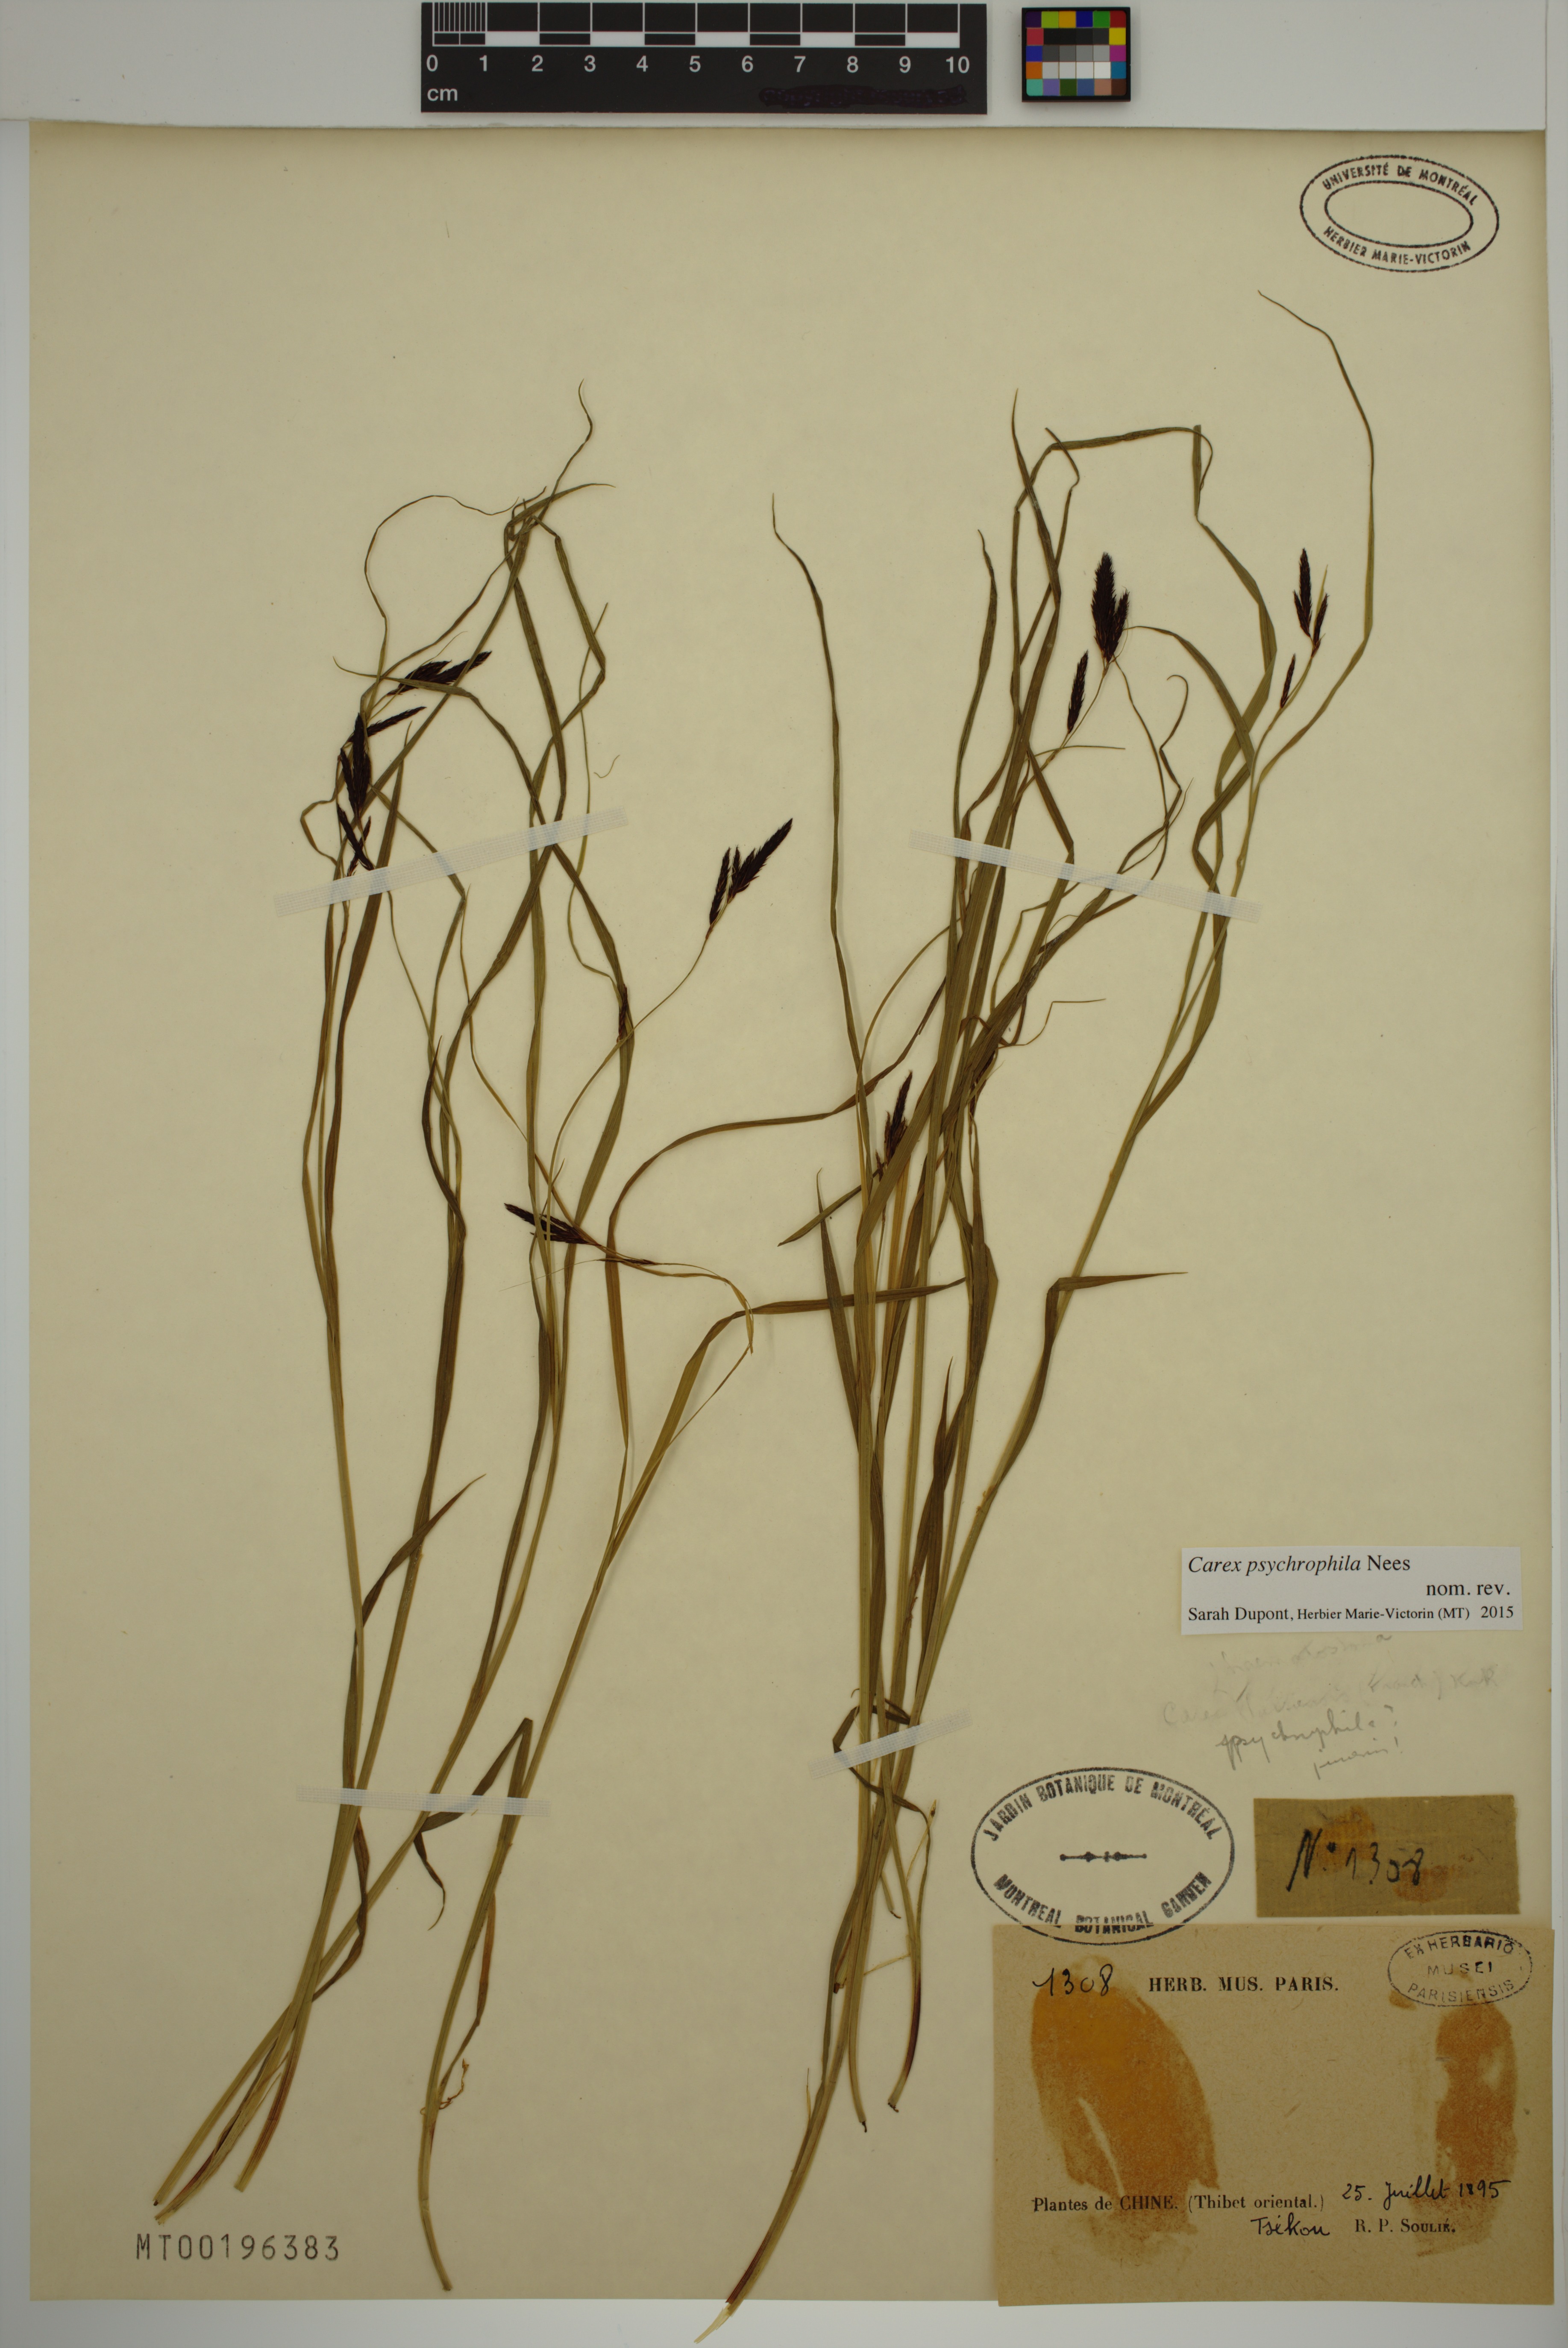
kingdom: Plantae
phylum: Tracheophyta
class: Liliopsida
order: Poales
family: Cyperaceae
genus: Carex
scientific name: Carex psychrophila
